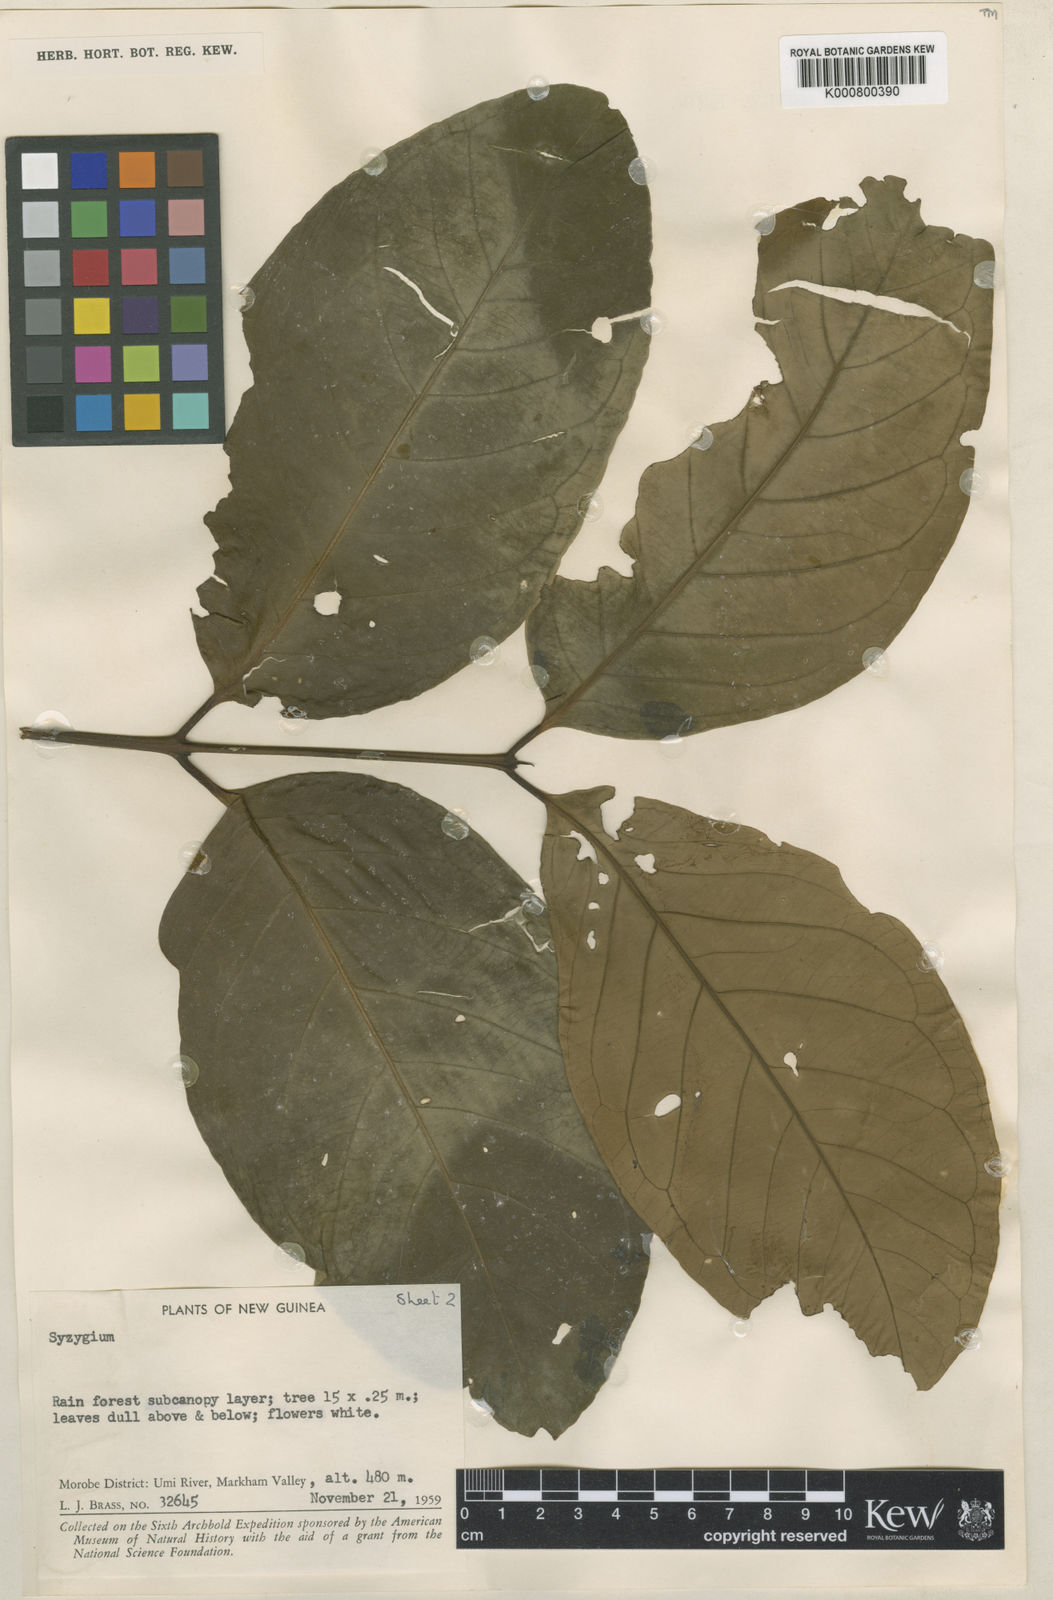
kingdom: Plantae
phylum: Tracheophyta
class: Magnoliopsida
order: Myrtales
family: Myrtaceae
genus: Syzygium
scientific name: Syzygium amplum
